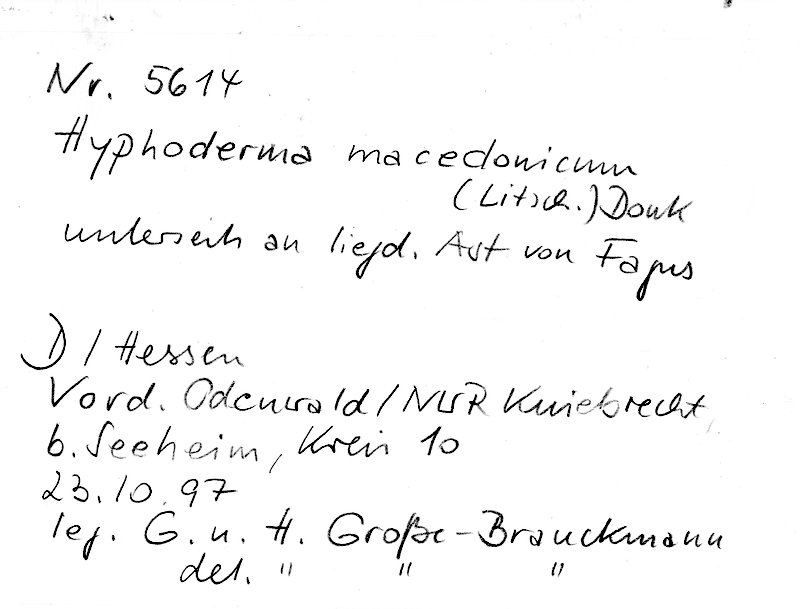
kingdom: Fungi
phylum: Basidiomycota
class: Agaricomycetes
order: Hymenochaetales
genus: Kurtia
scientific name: Kurtia macedonica
